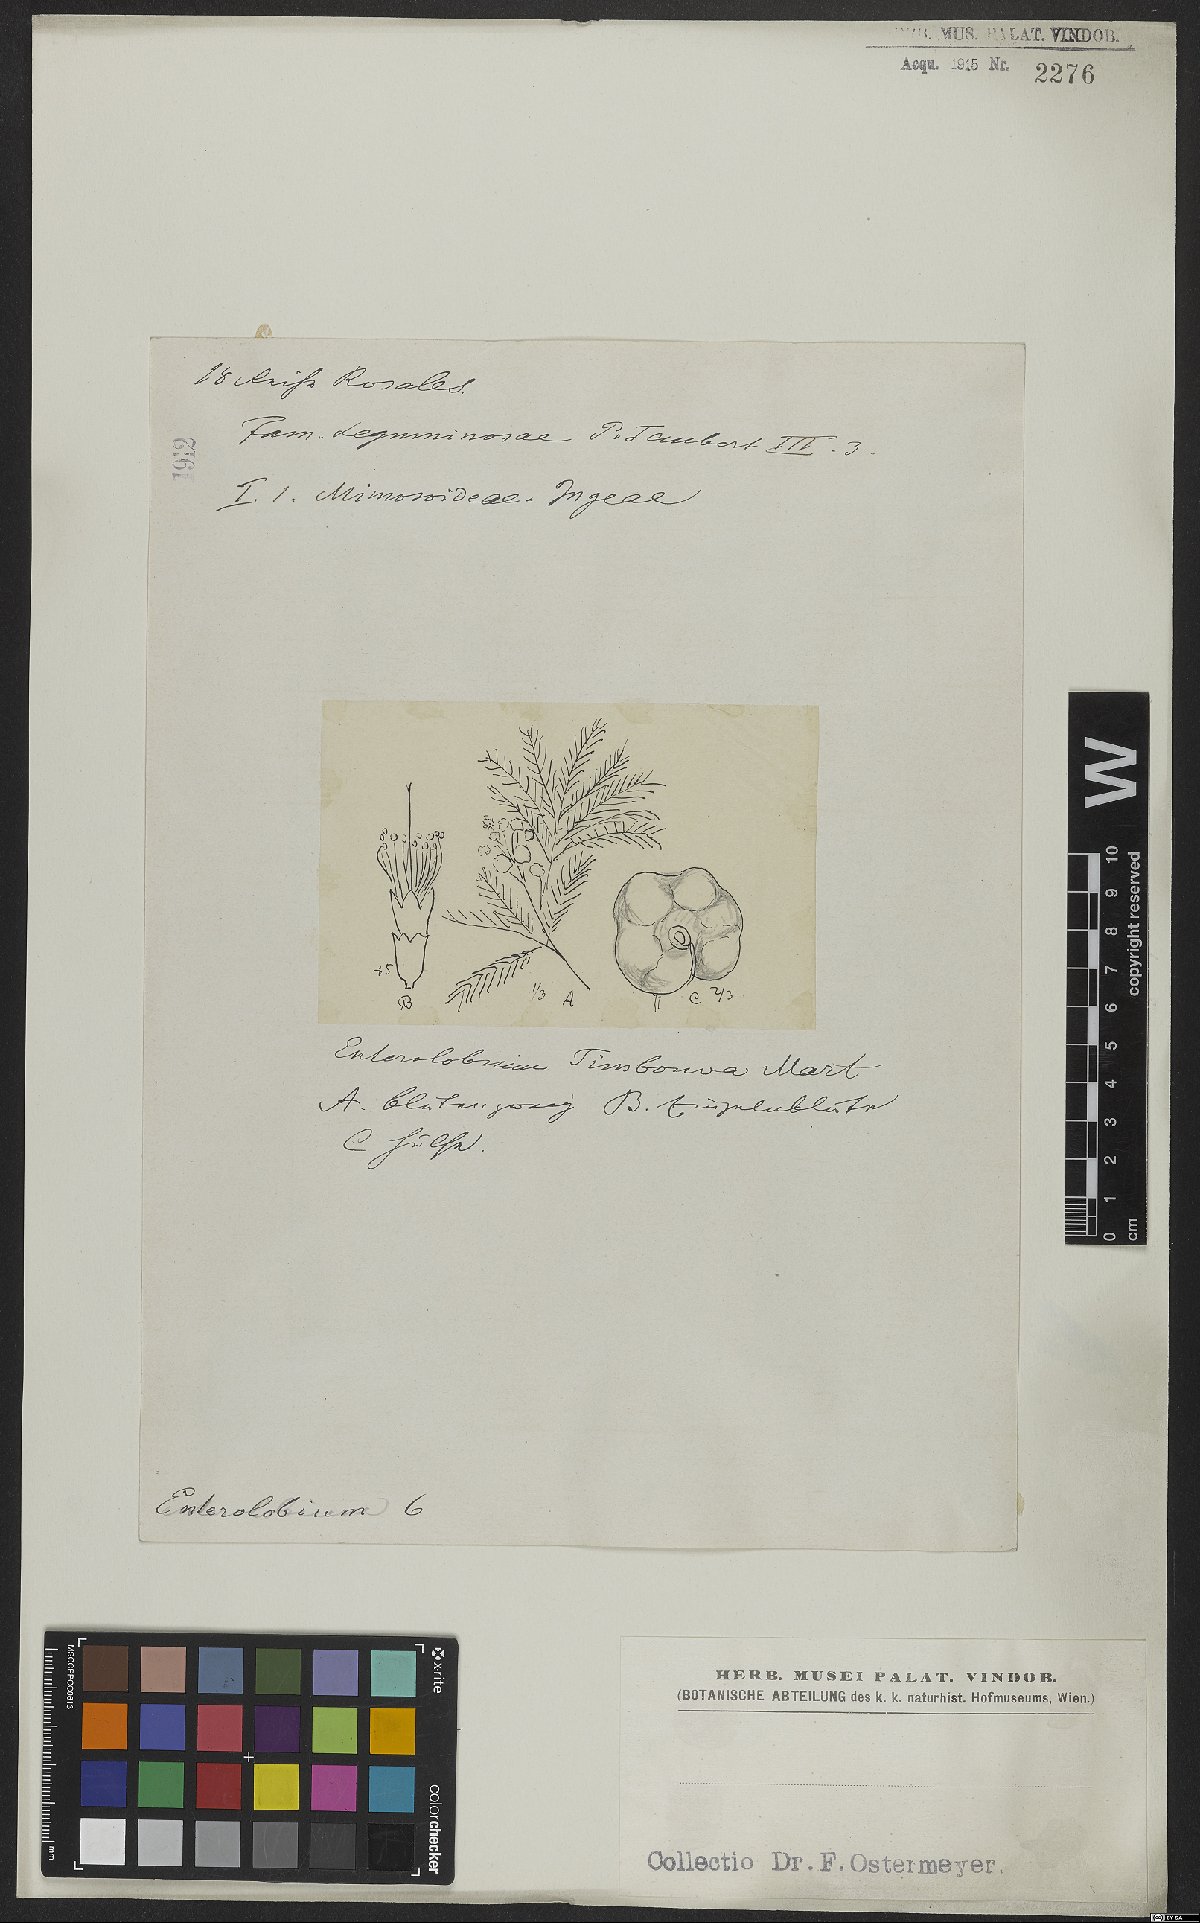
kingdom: Plantae
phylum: Tracheophyta
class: Magnoliopsida
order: Fabales
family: Fabaceae
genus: Enterolobium
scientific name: Enterolobium timbouva
